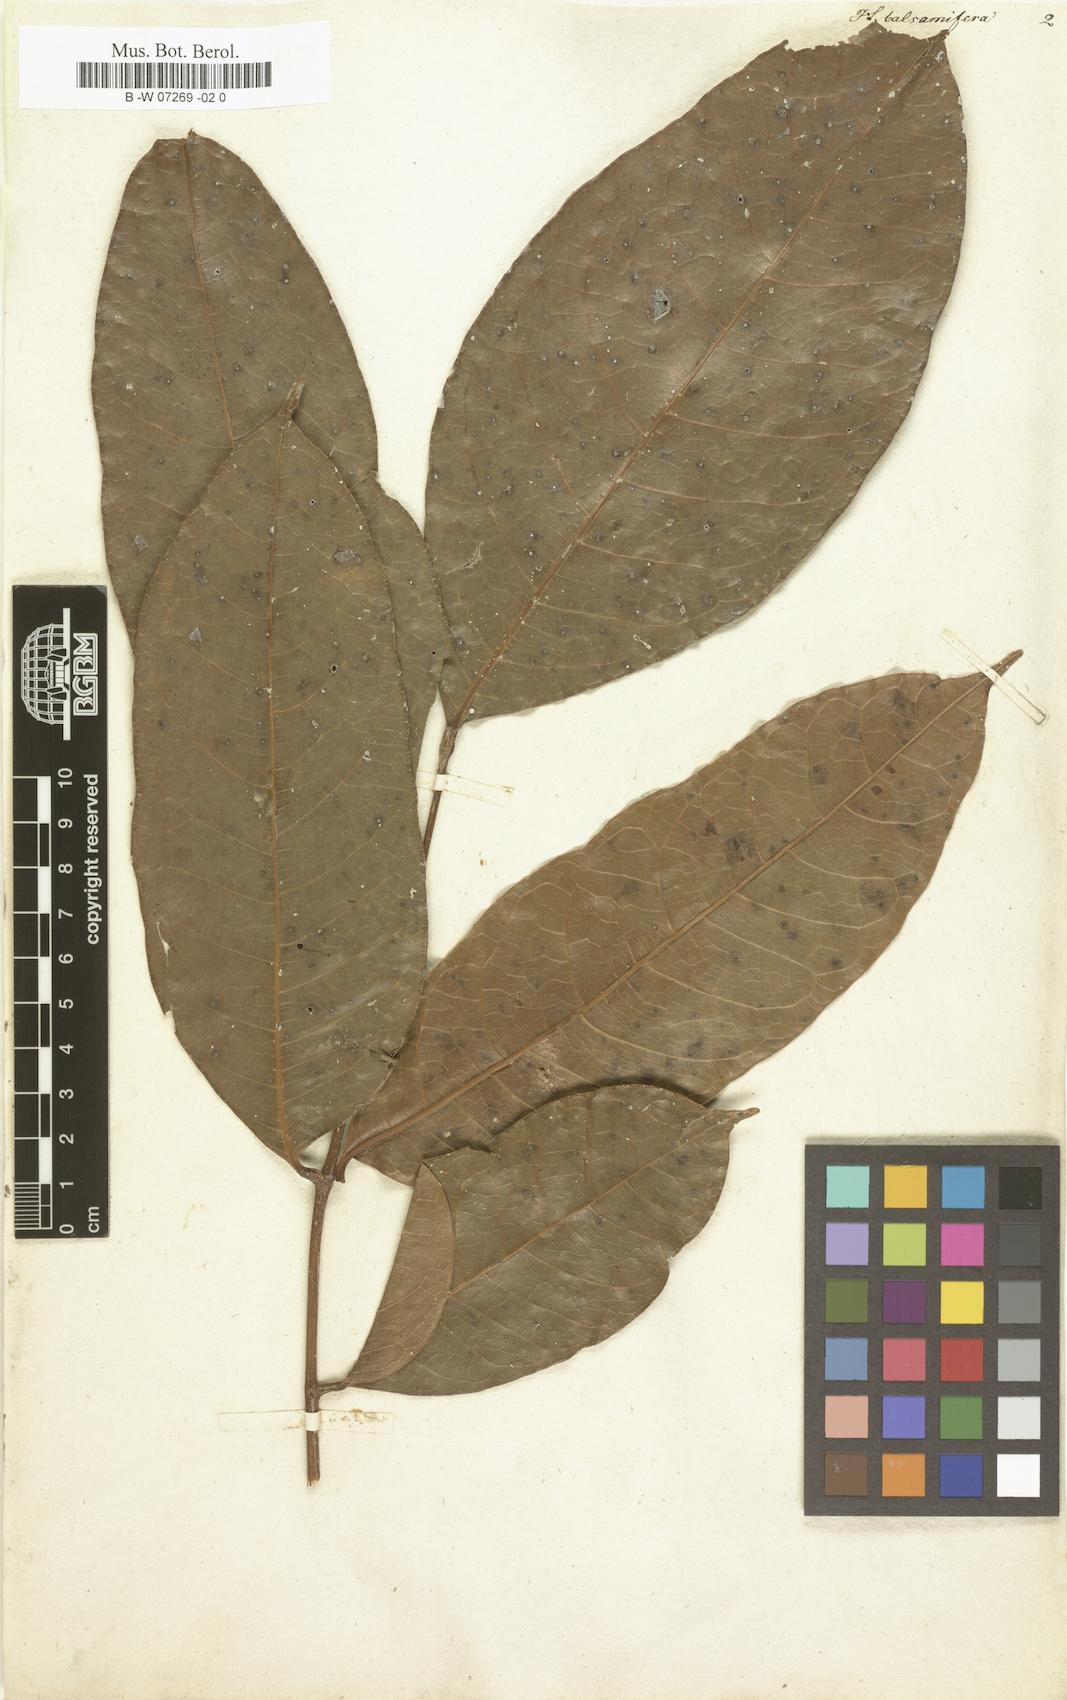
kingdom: Plantae
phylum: Tracheophyta
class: Magnoliopsida
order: Sapindales
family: Burseraceae
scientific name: Burseraceae
